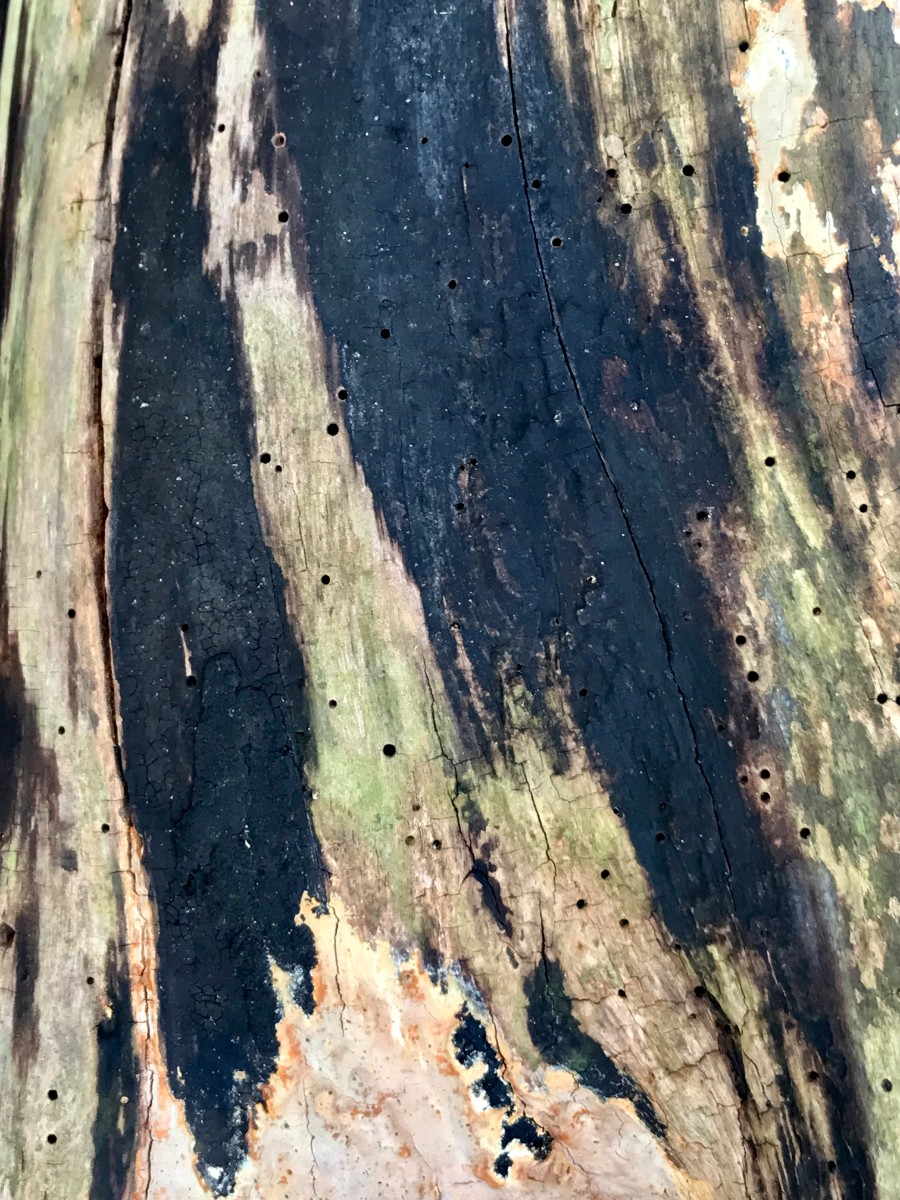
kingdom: Fungi
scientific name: Fungi
